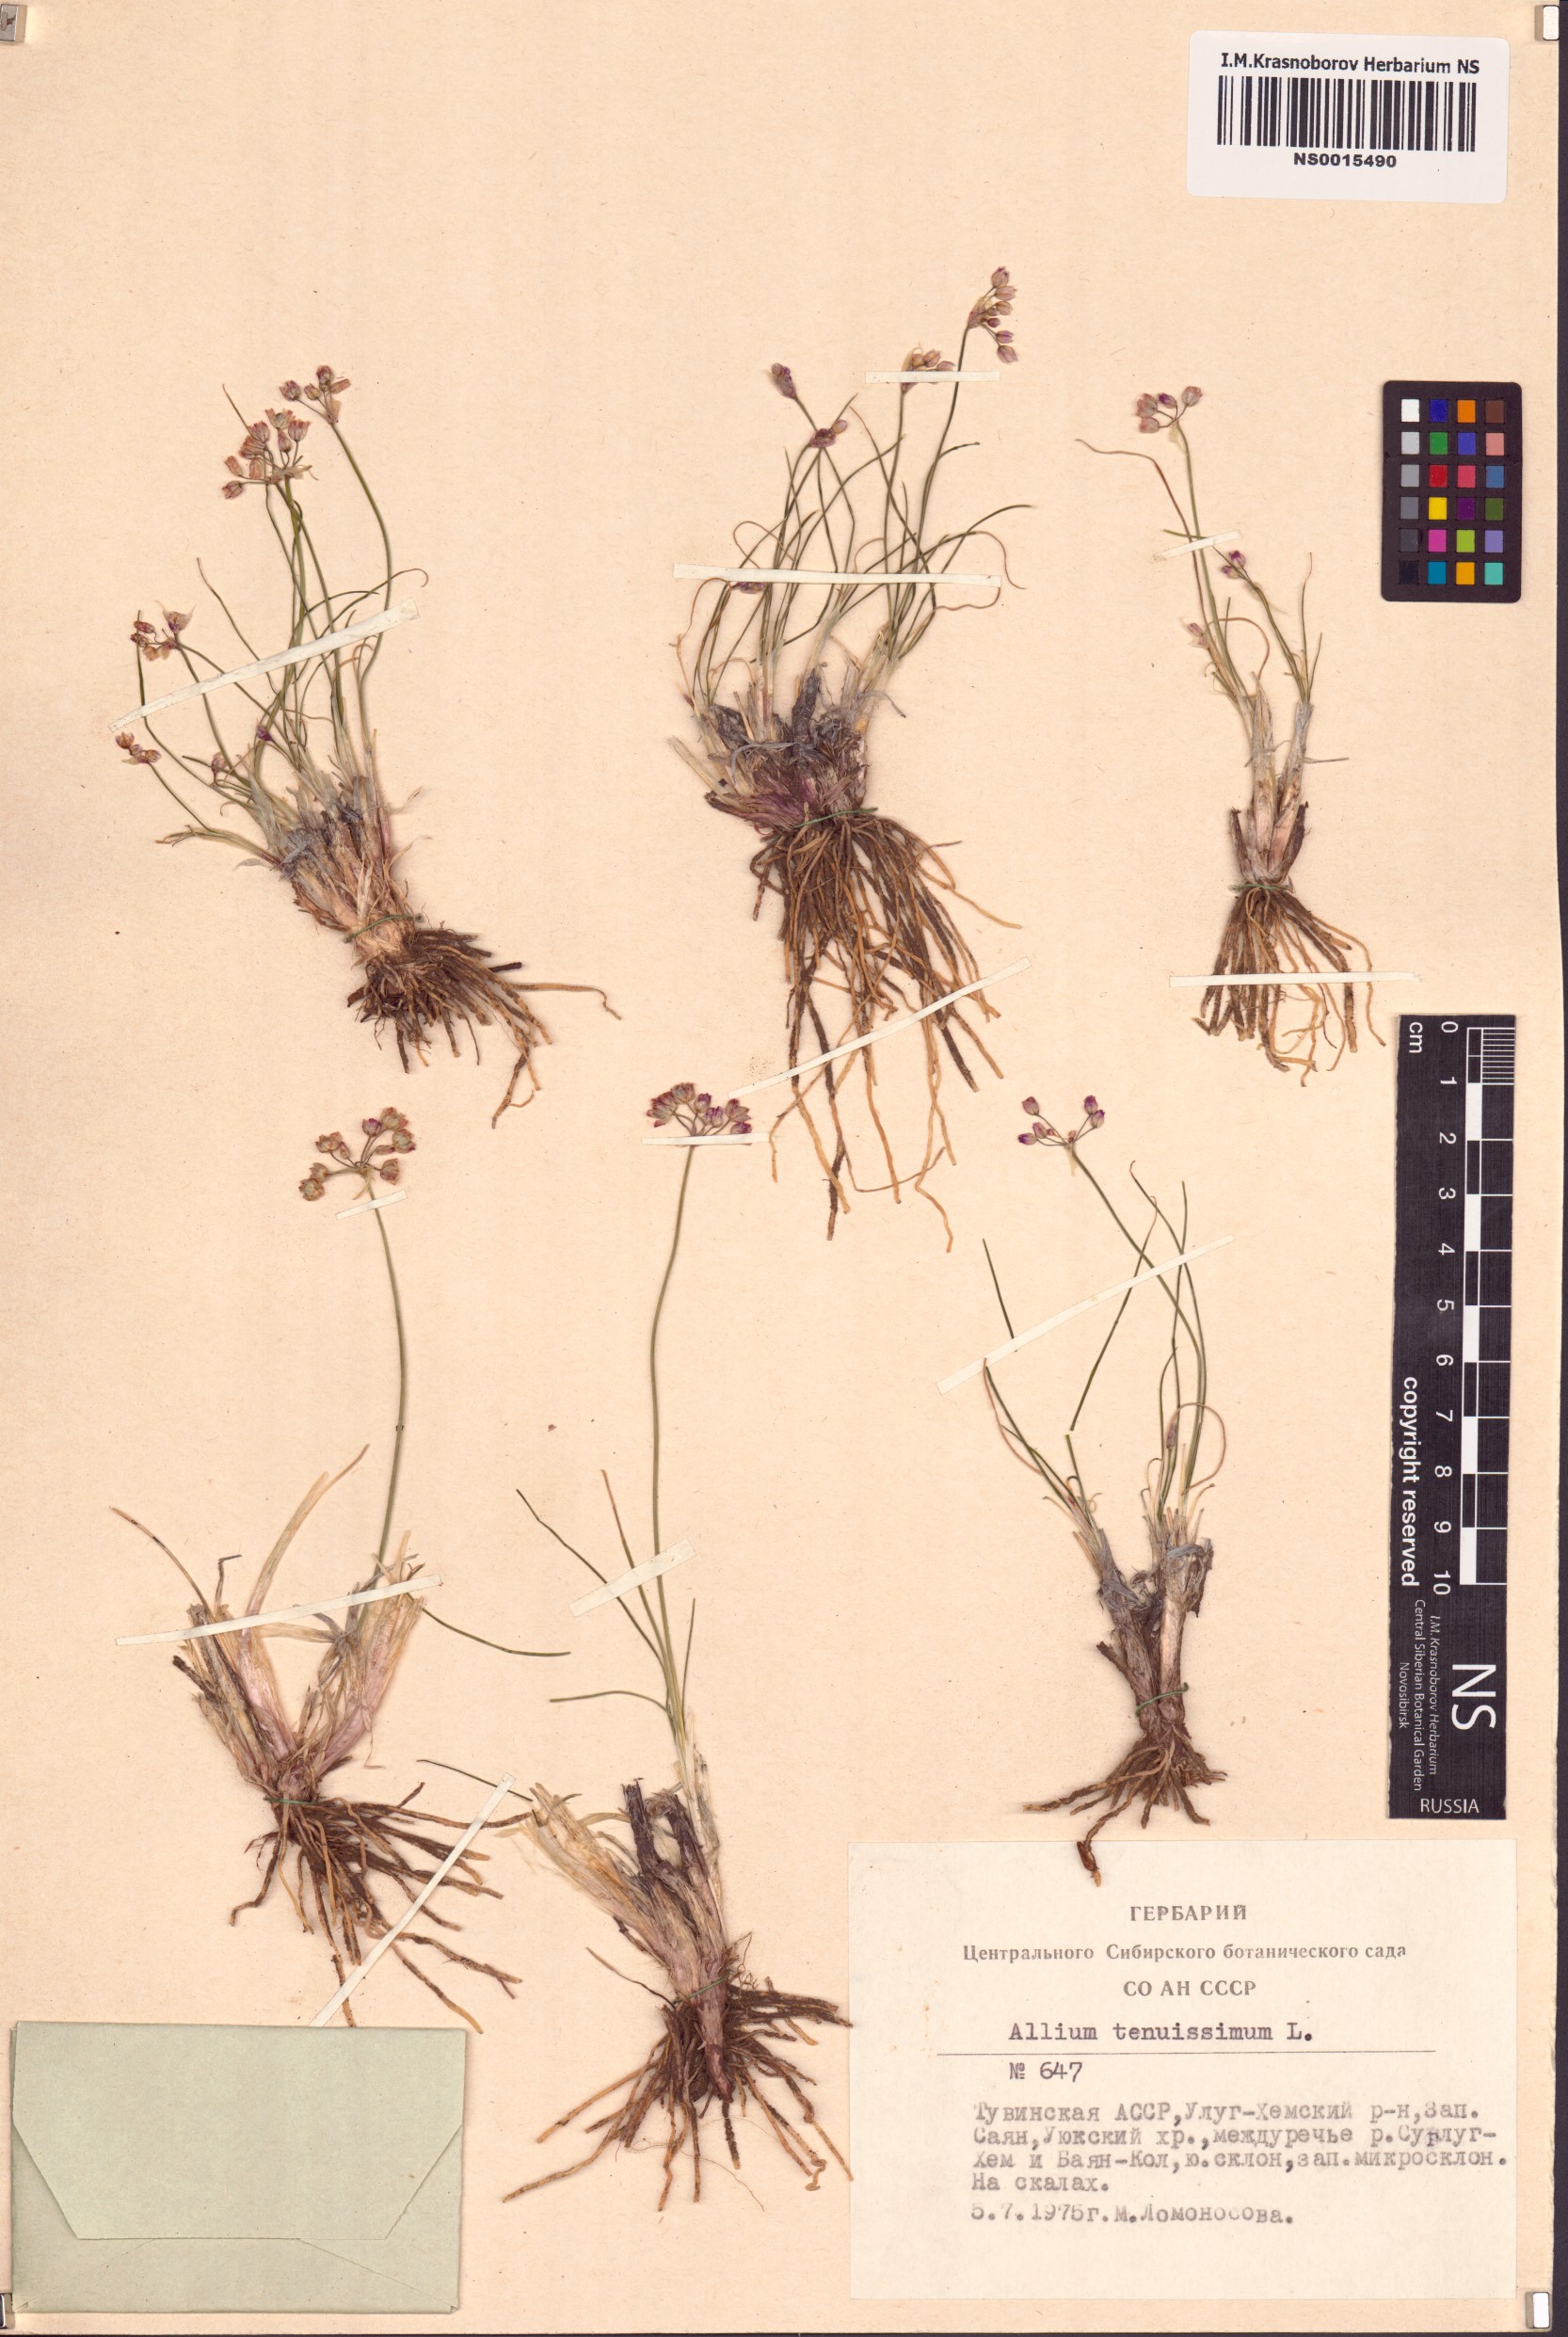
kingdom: Plantae
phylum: Tracheophyta
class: Liliopsida
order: Asparagales
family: Amaryllidaceae
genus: Allium
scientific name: Allium tenuissimum
